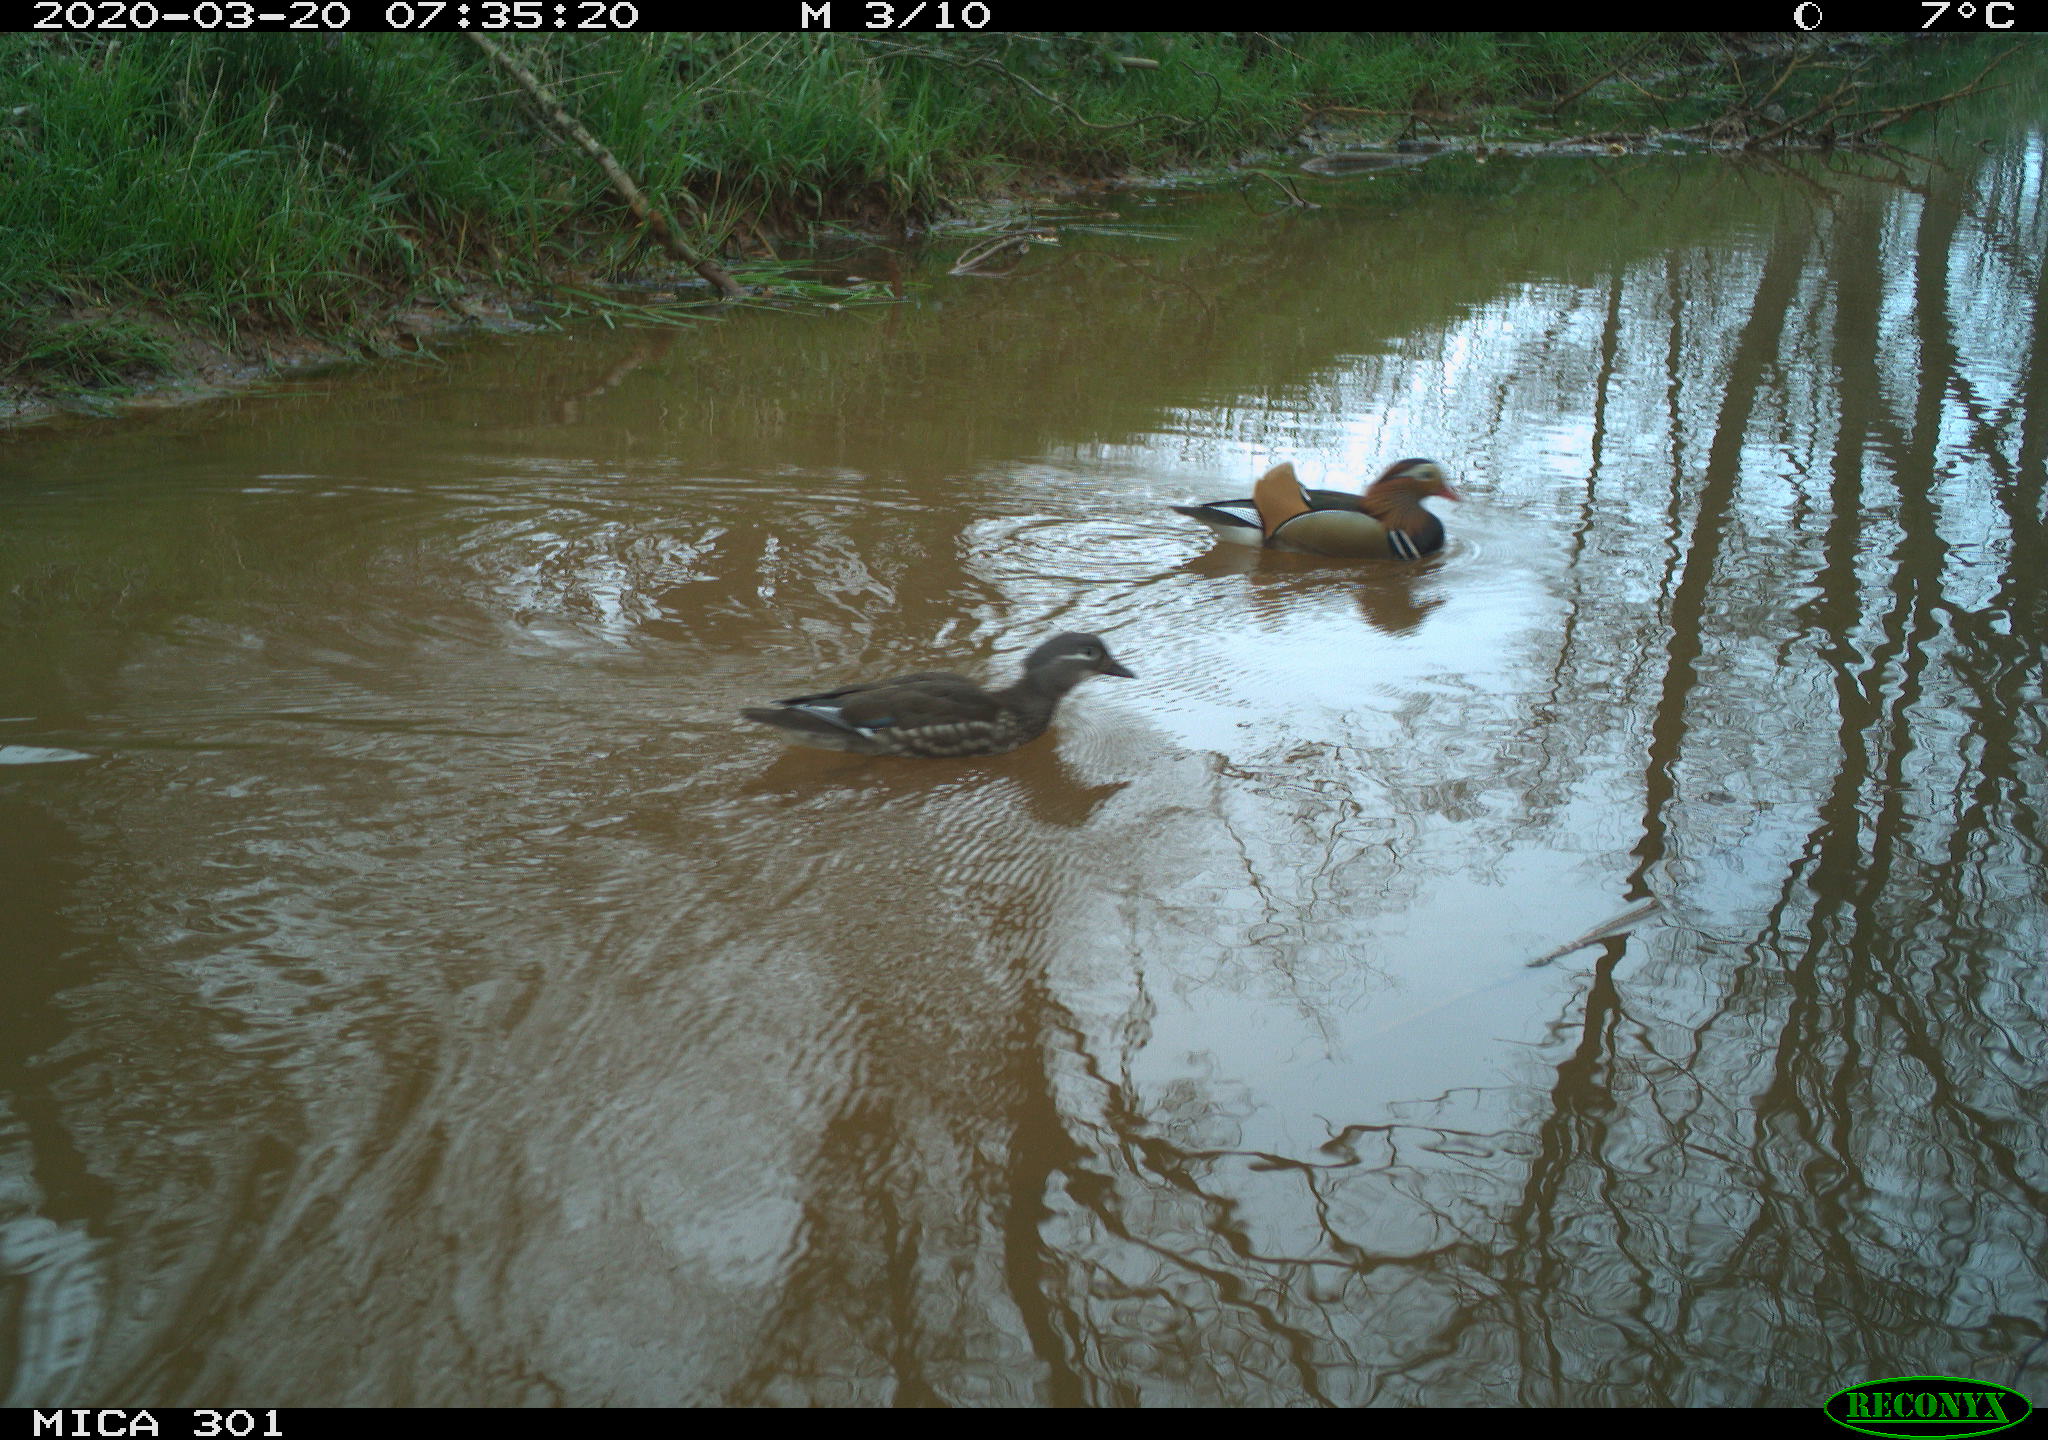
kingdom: Animalia
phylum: Chordata
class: Aves
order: Anseriformes
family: Anatidae
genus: Aix
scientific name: Aix galericulata
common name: Mandarin duck
